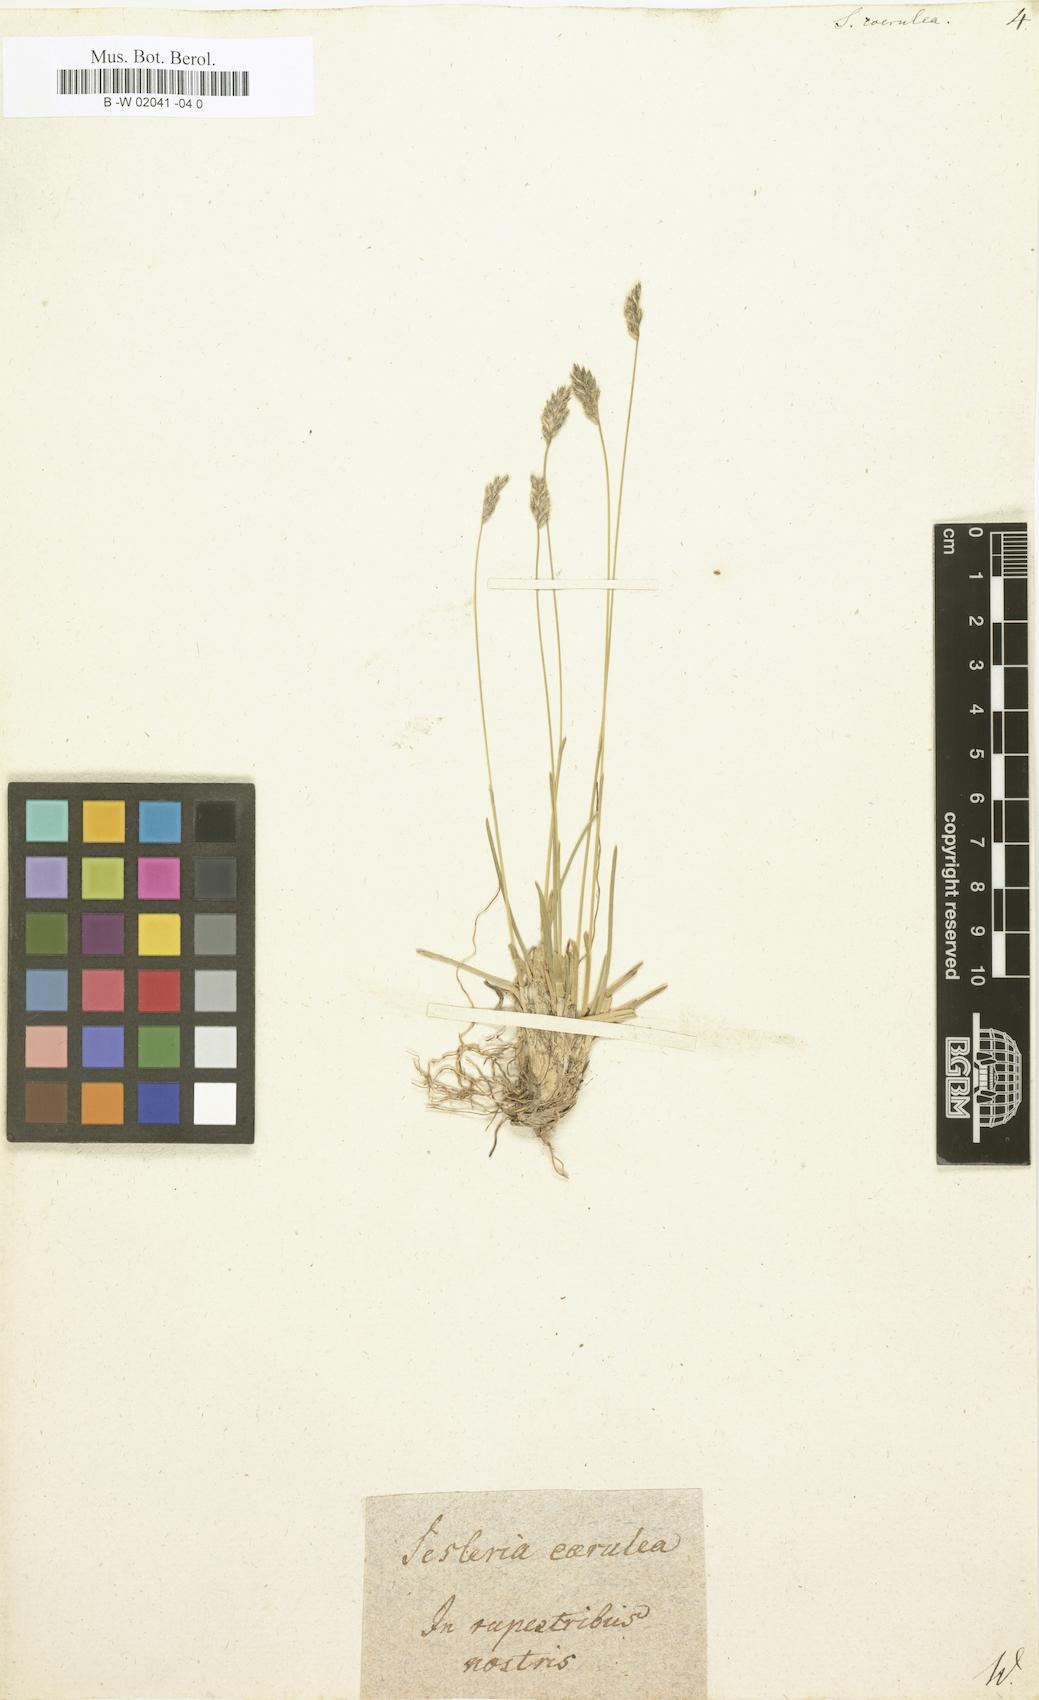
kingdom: Plantae
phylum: Tracheophyta
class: Liliopsida
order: Poales
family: Poaceae
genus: Sesleria
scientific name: Sesleria caerulea
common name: Blue moor-grass
